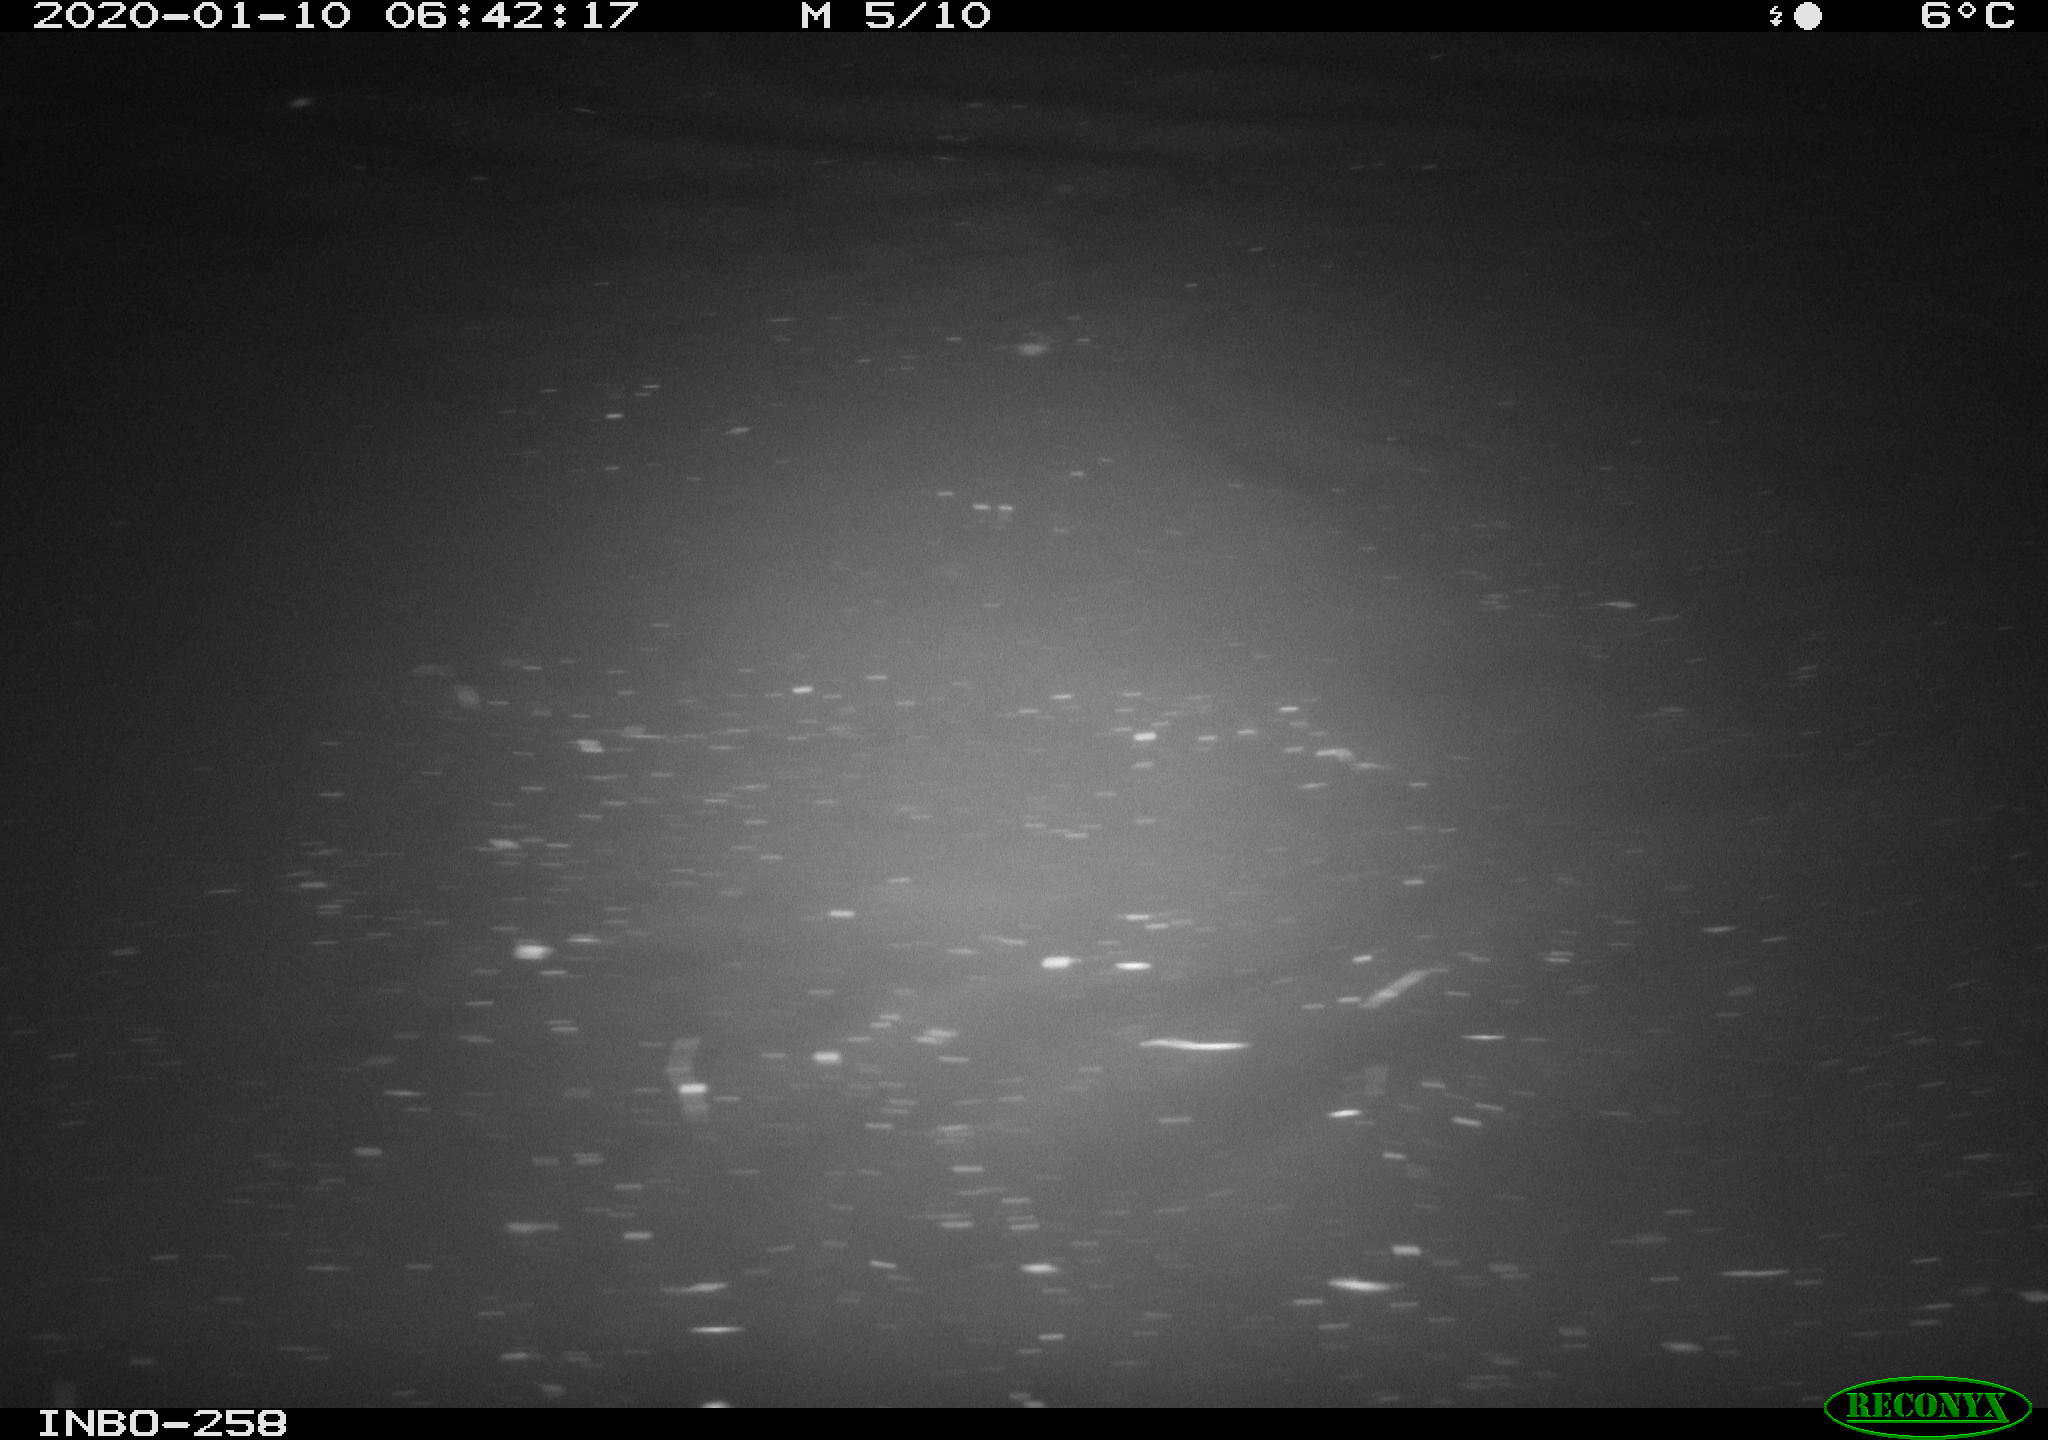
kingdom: Animalia
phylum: Chordata
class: Aves
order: Anseriformes
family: Anatidae
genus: Anas
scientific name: Anas platyrhynchos
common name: Mallard
